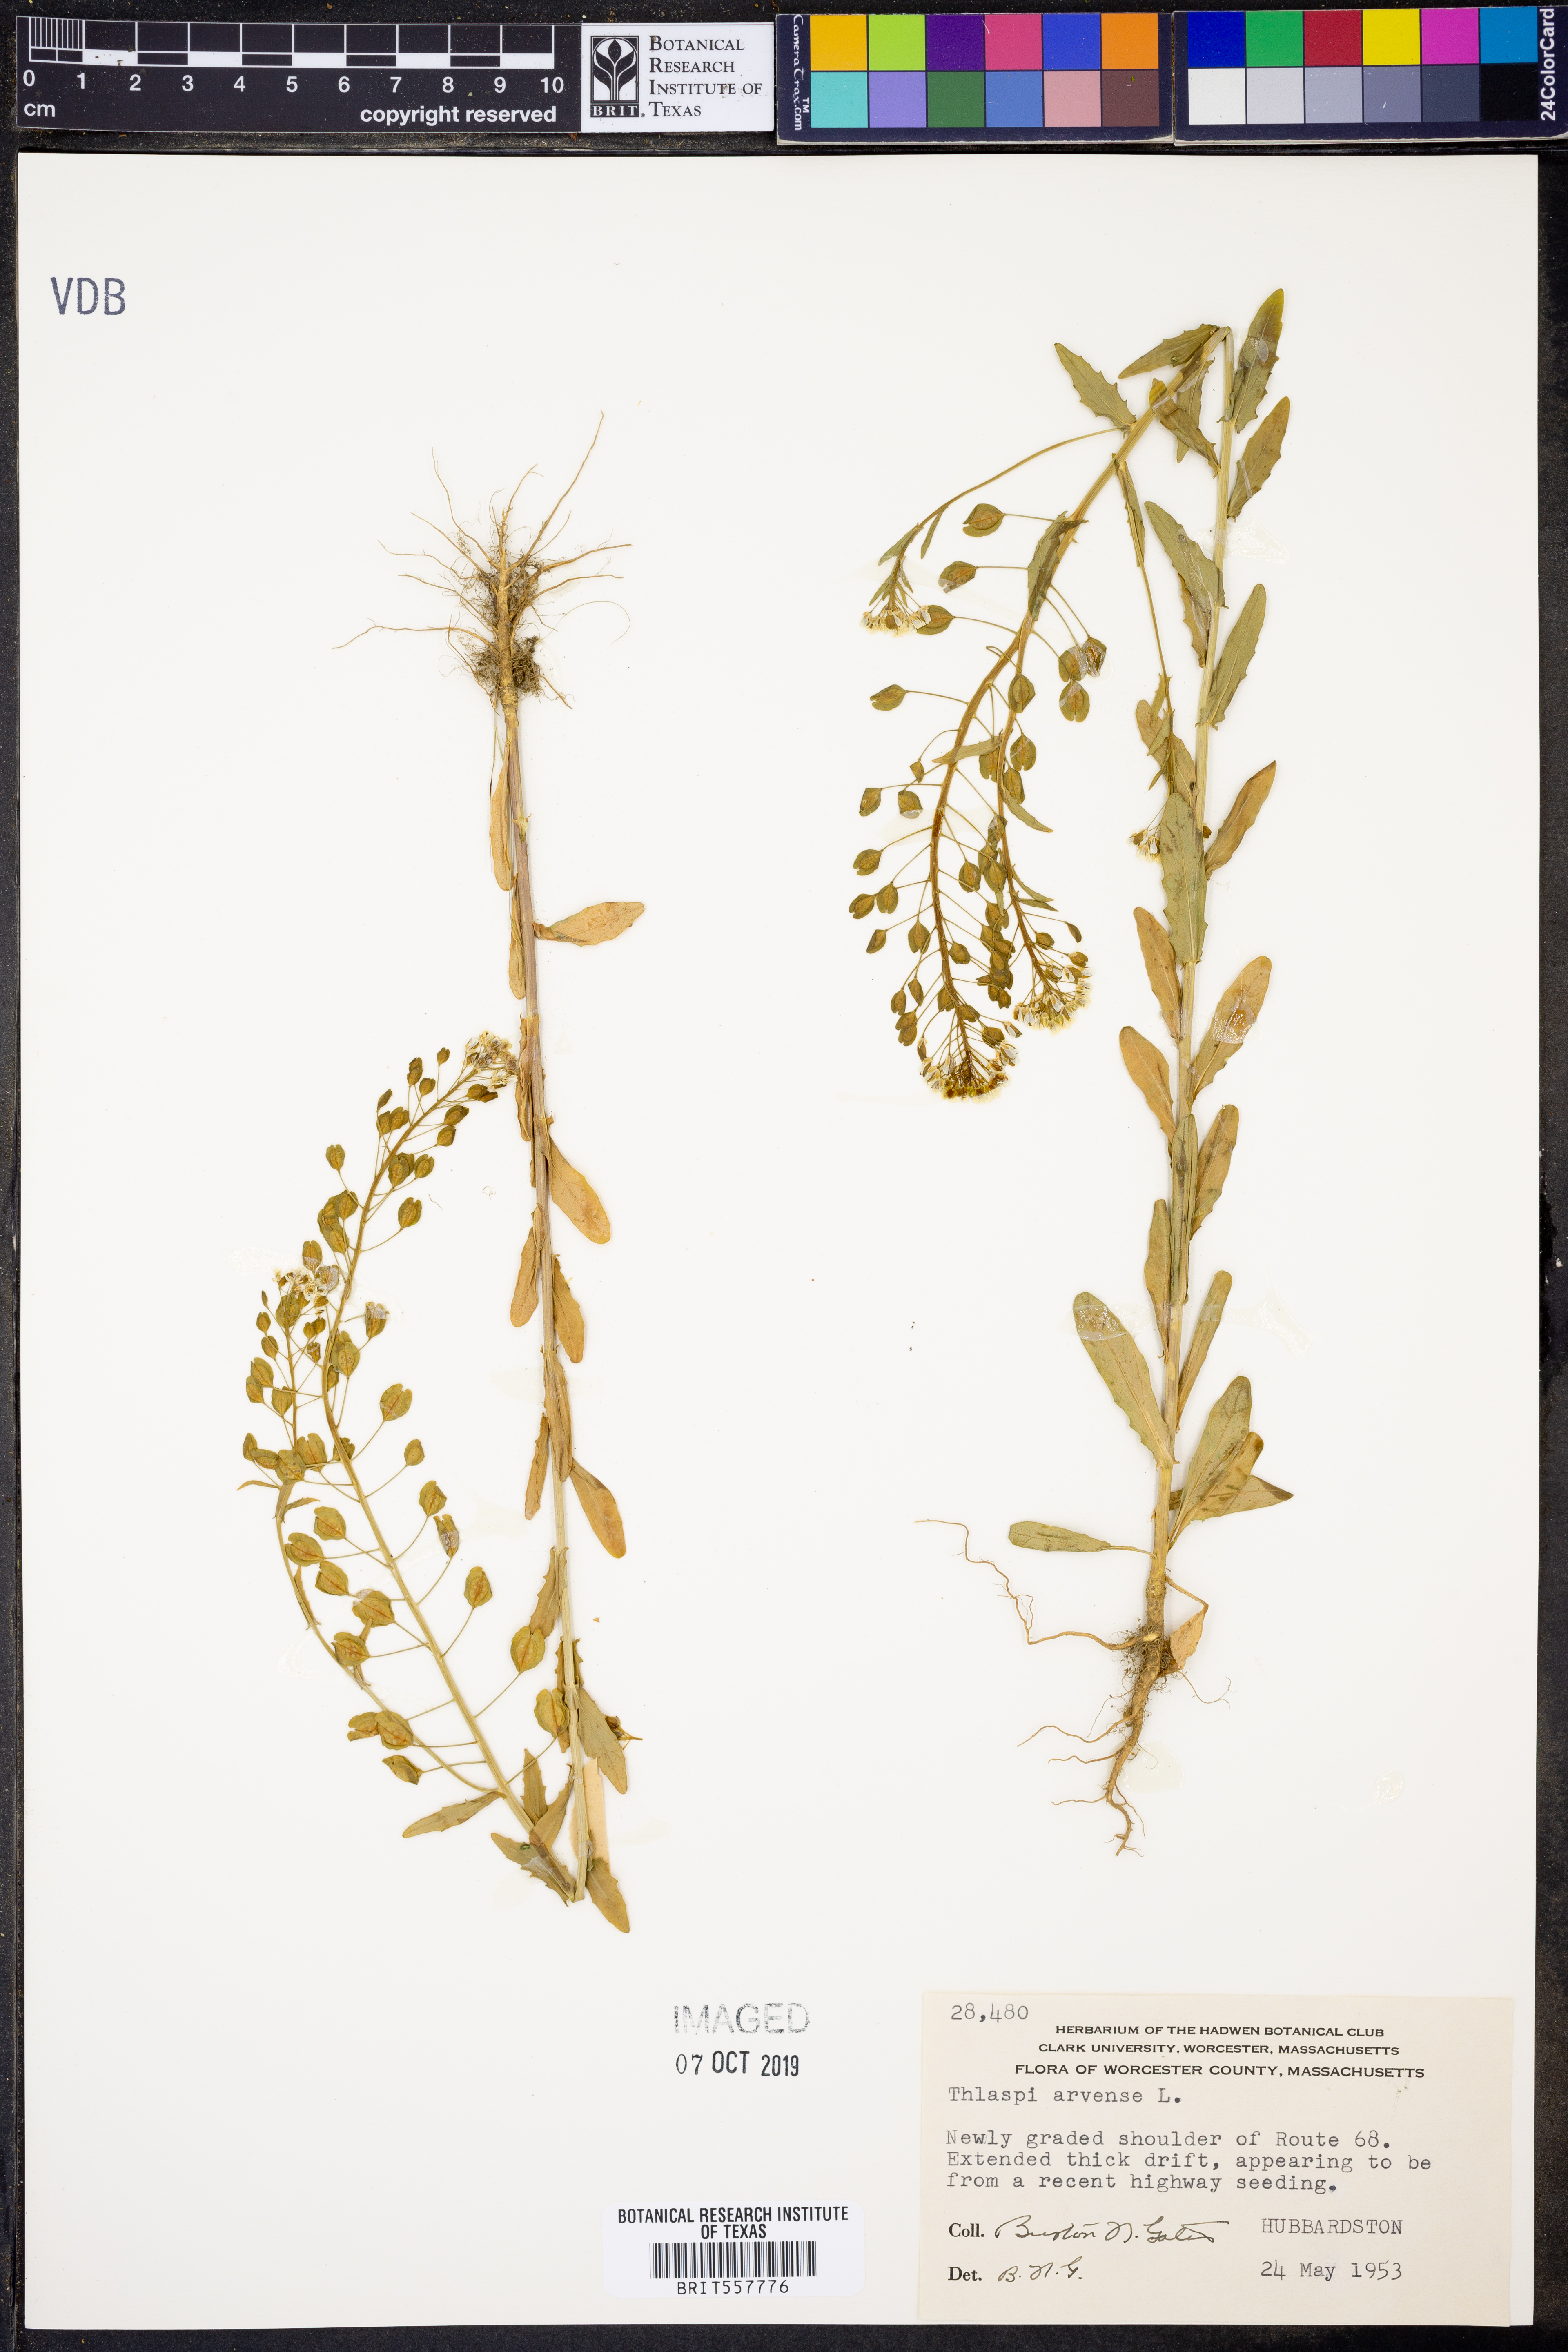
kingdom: Plantae
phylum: Tracheophyta
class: Magnoliopsida
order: Brassicales
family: Brassicaceae
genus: Thlaspi
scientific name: Thlaspi arvense
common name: Field pennycress
